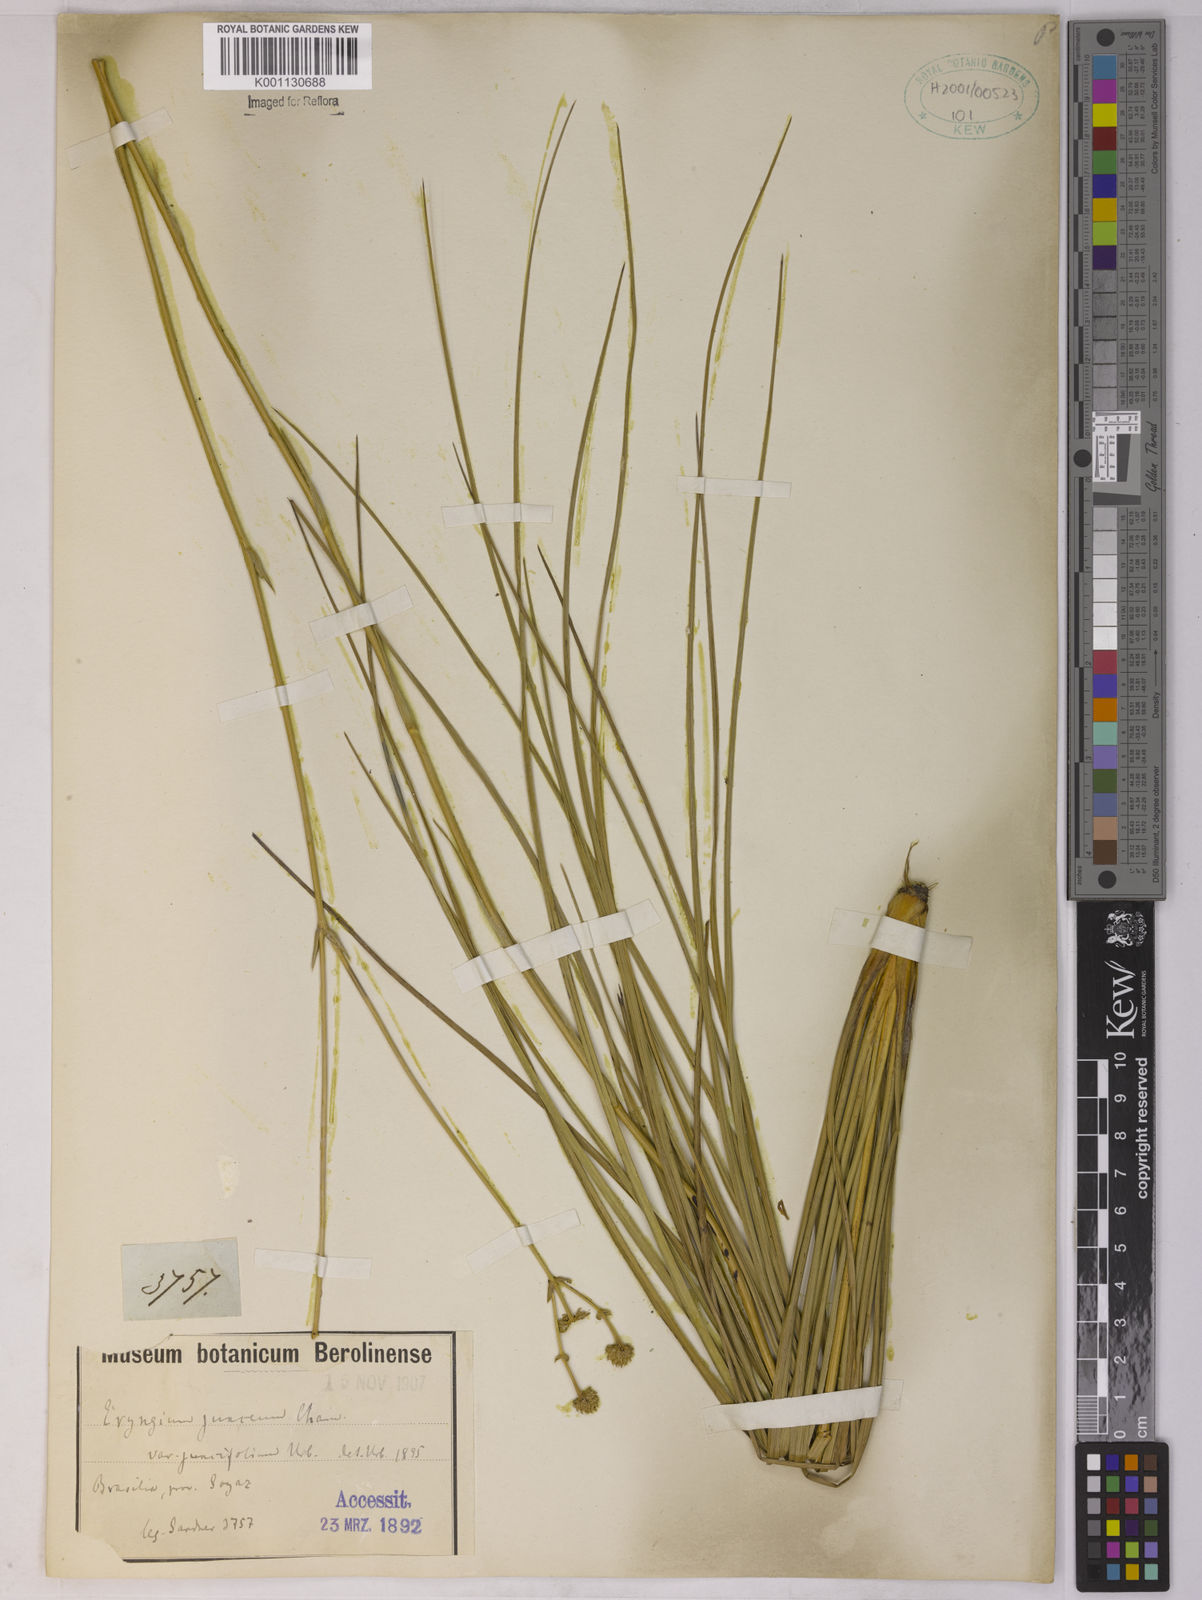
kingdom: Plantae
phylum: Tracheophyta
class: Magnoliopsida
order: Apiales
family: Apiaceae
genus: Eryngium
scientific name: Eryngium juncifolium
